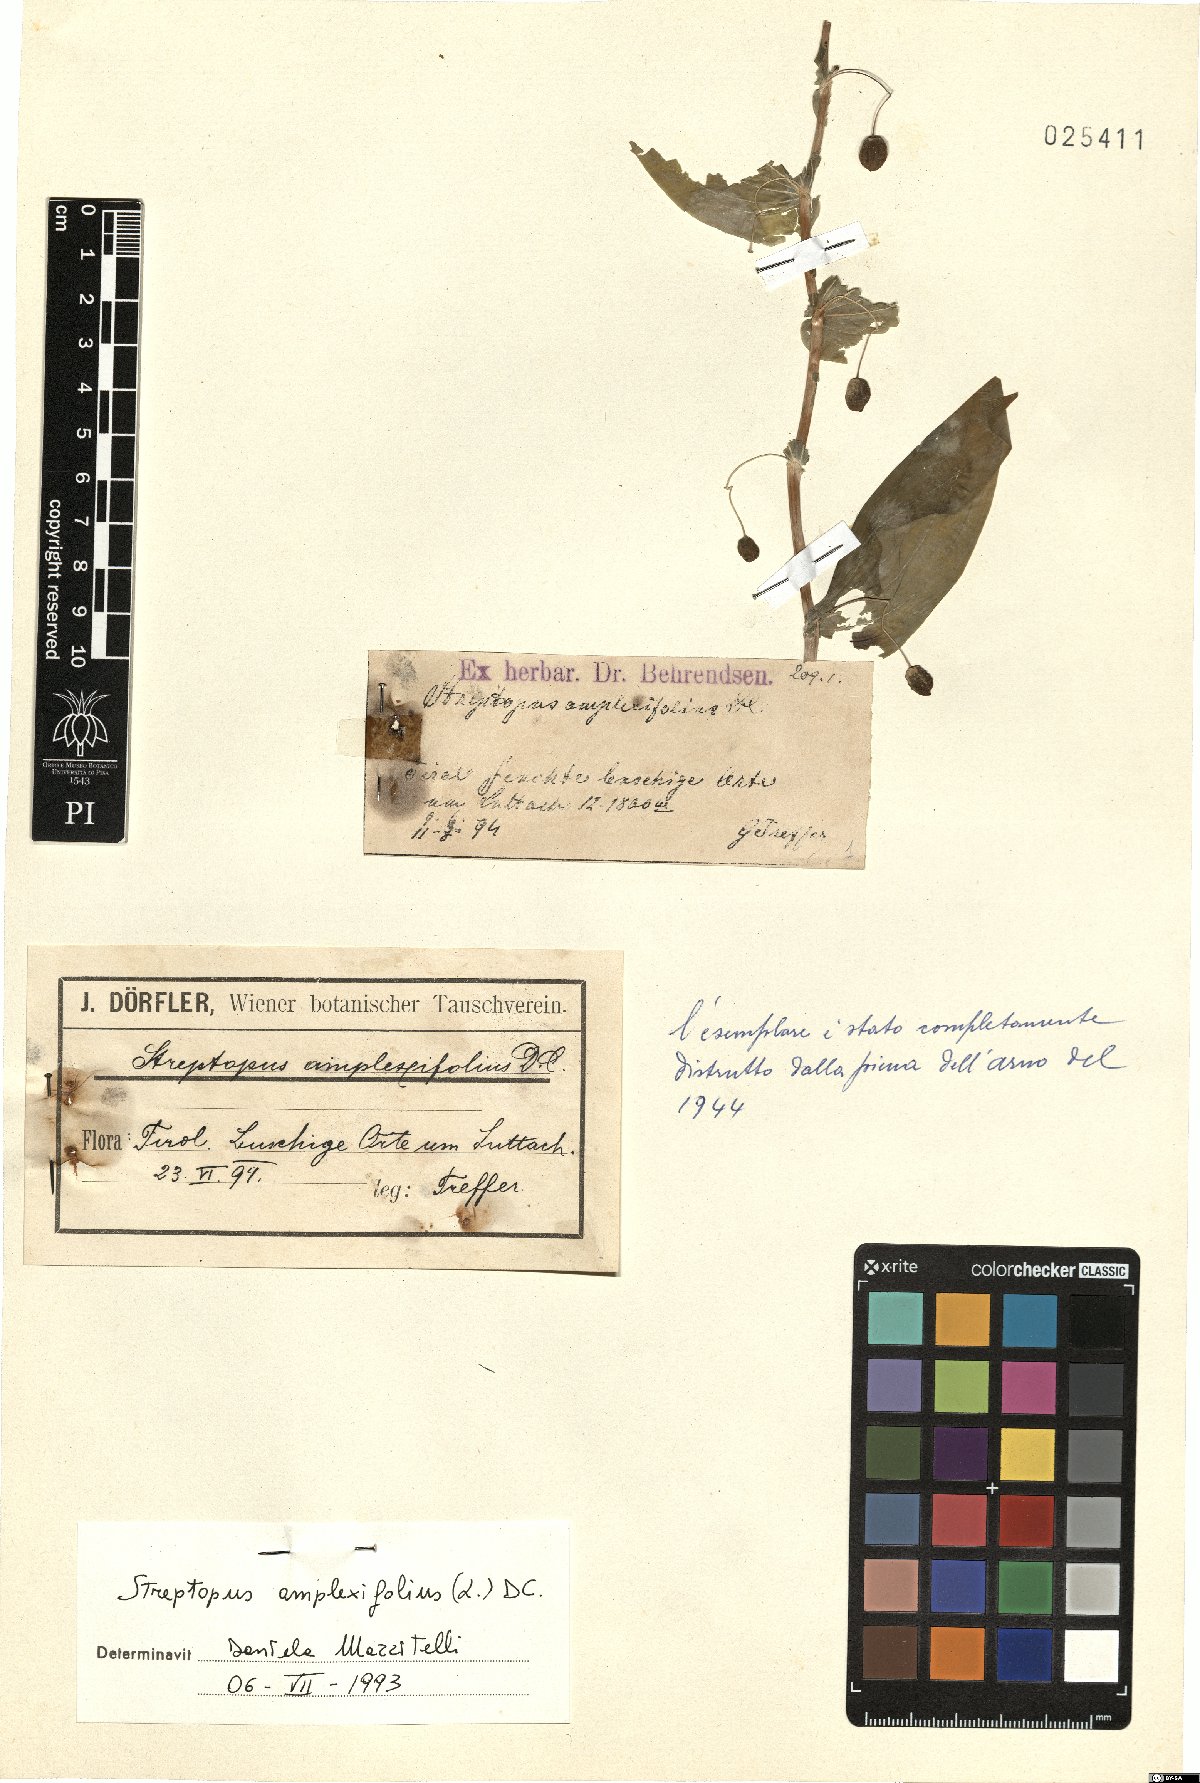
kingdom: Plantae
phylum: Tracheophyta
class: Liliopsida
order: Liliales
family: Liliaceae
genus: Streptopus
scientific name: Streptopus amplexifolius
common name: Clasp twisted stalk
